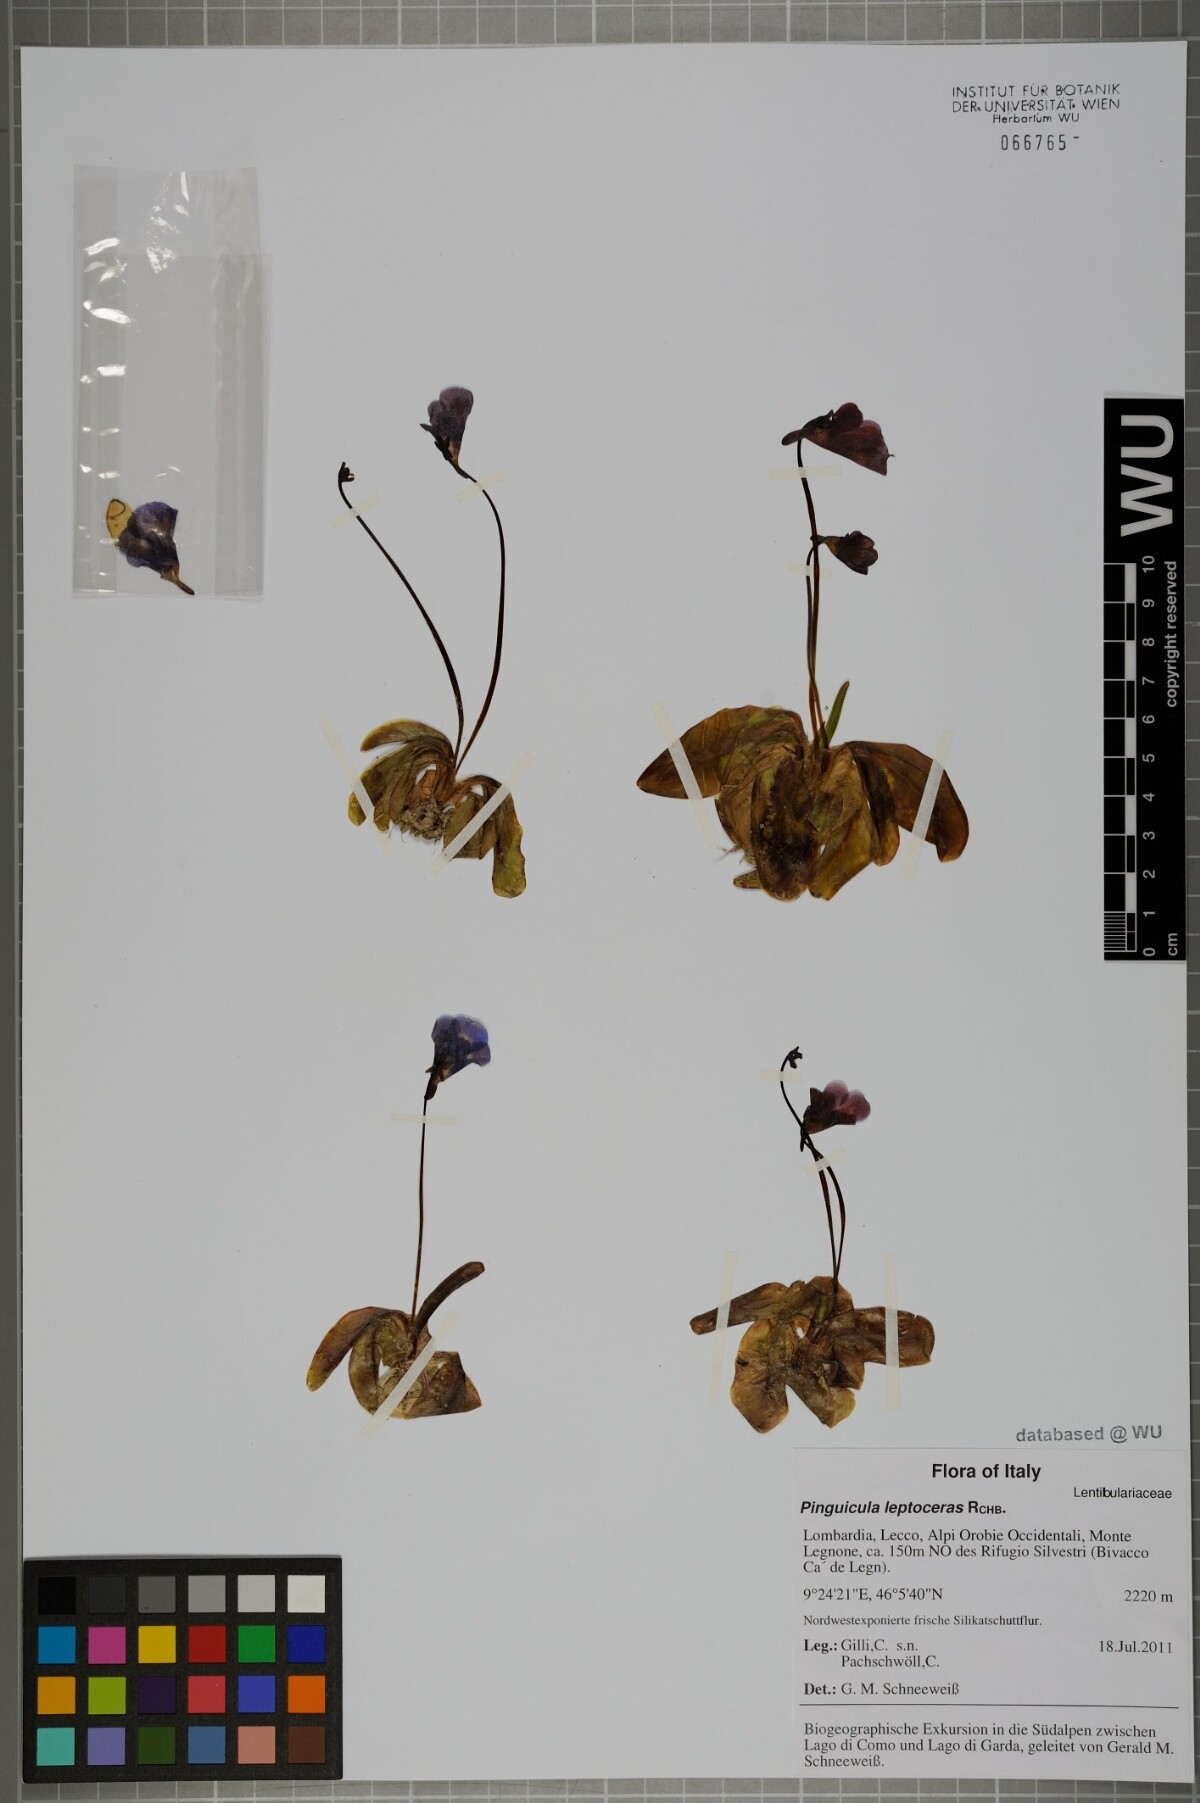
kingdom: Plantae
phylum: Tracheophyta
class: Magnoliopsida
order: Lamiales
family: Lentibulariaceae
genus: Pinguicula
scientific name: Pinguicula leptoceras
